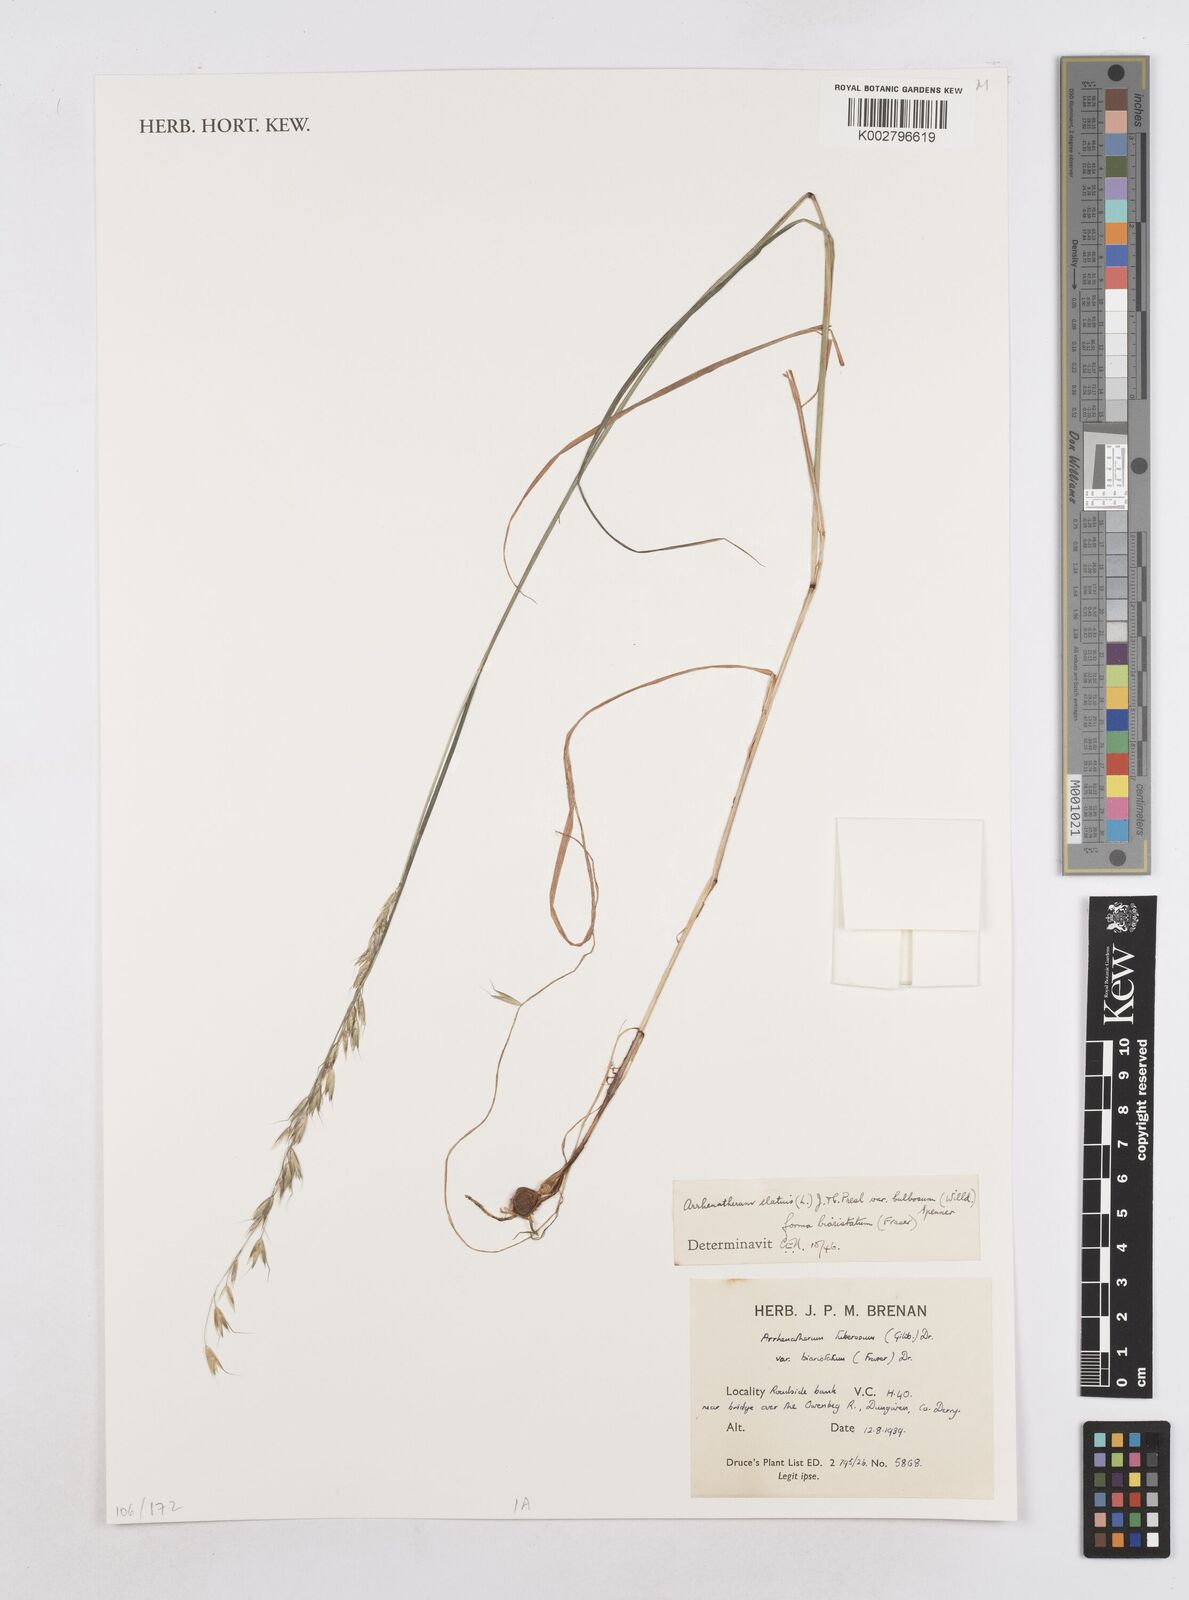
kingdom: Plantae
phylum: Tracheophyta
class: Liliopsida
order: Poales
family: Poaceae
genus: Arrhenatherum
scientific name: Arrhenatherum elatius
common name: Tall oatgrass
